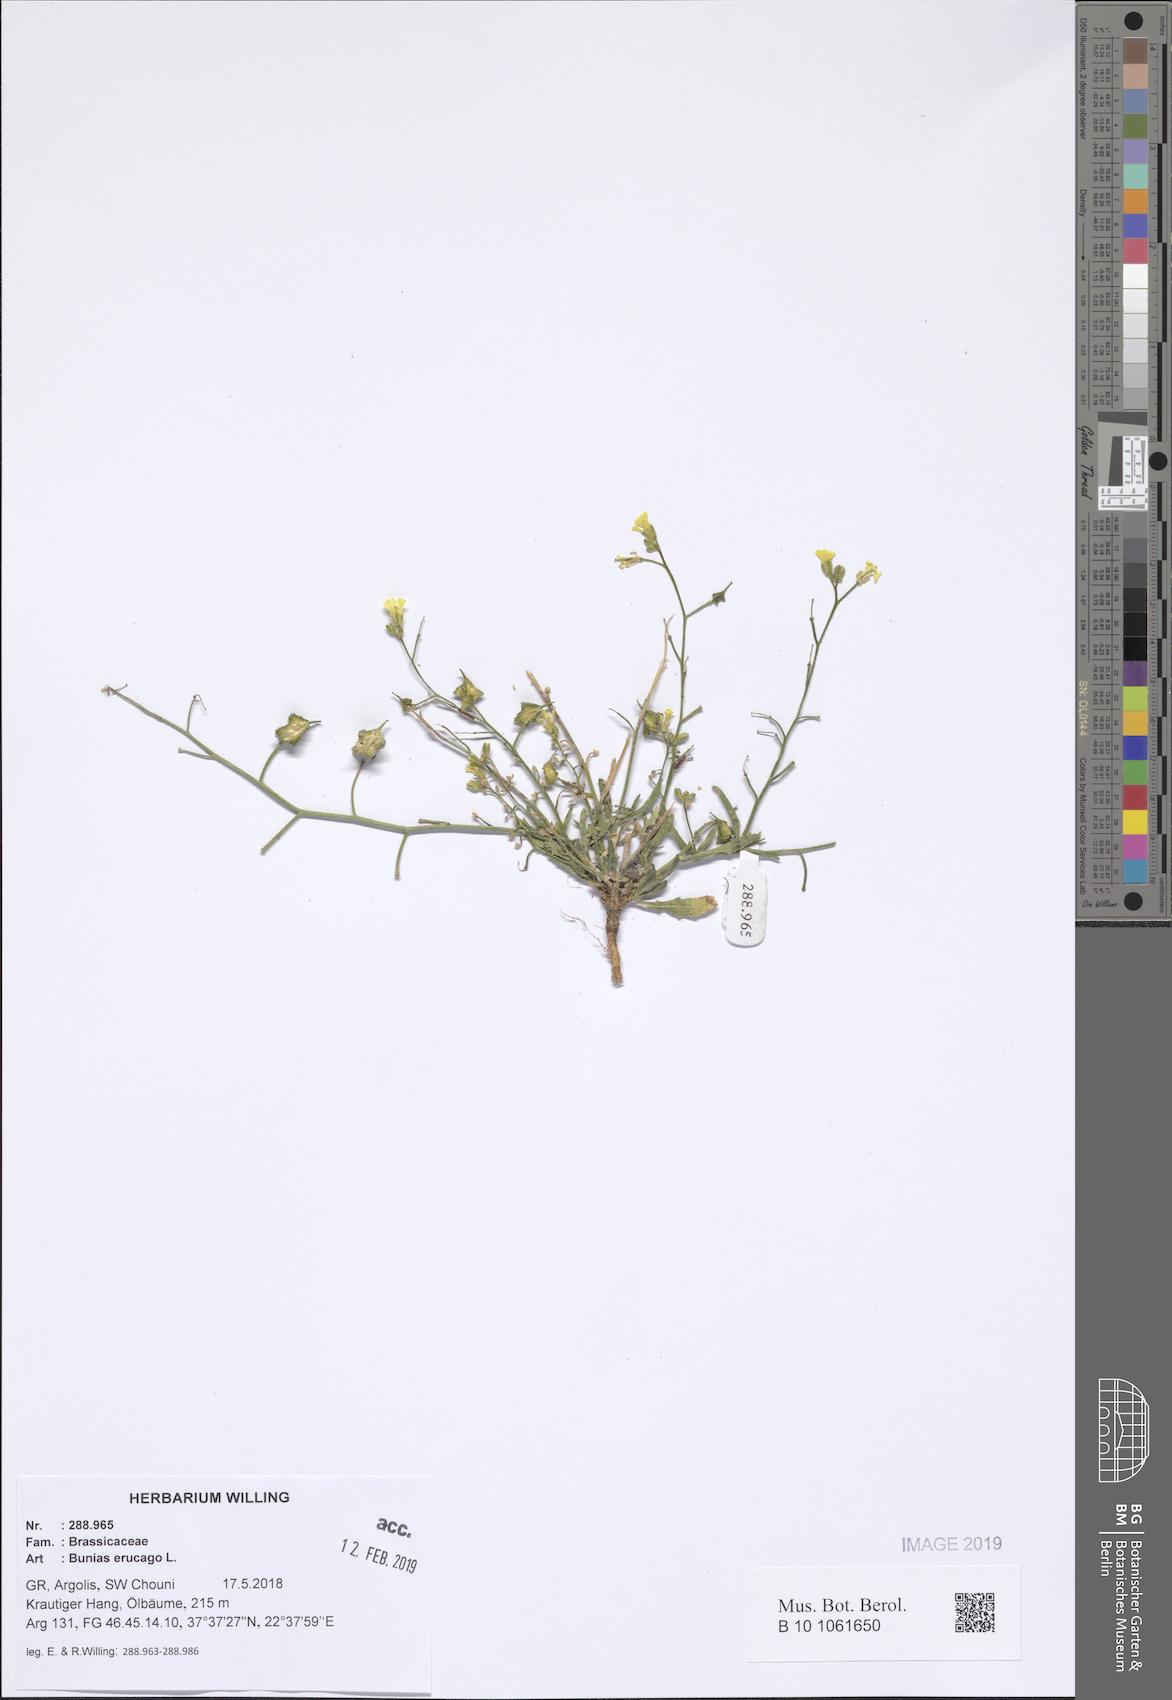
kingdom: Plantae
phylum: Tracheophyta
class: Magnoliopsida
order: Brassicales
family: Brassicaceae
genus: Bunias
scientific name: Bunias erucago
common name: Southern warty-cabbage
